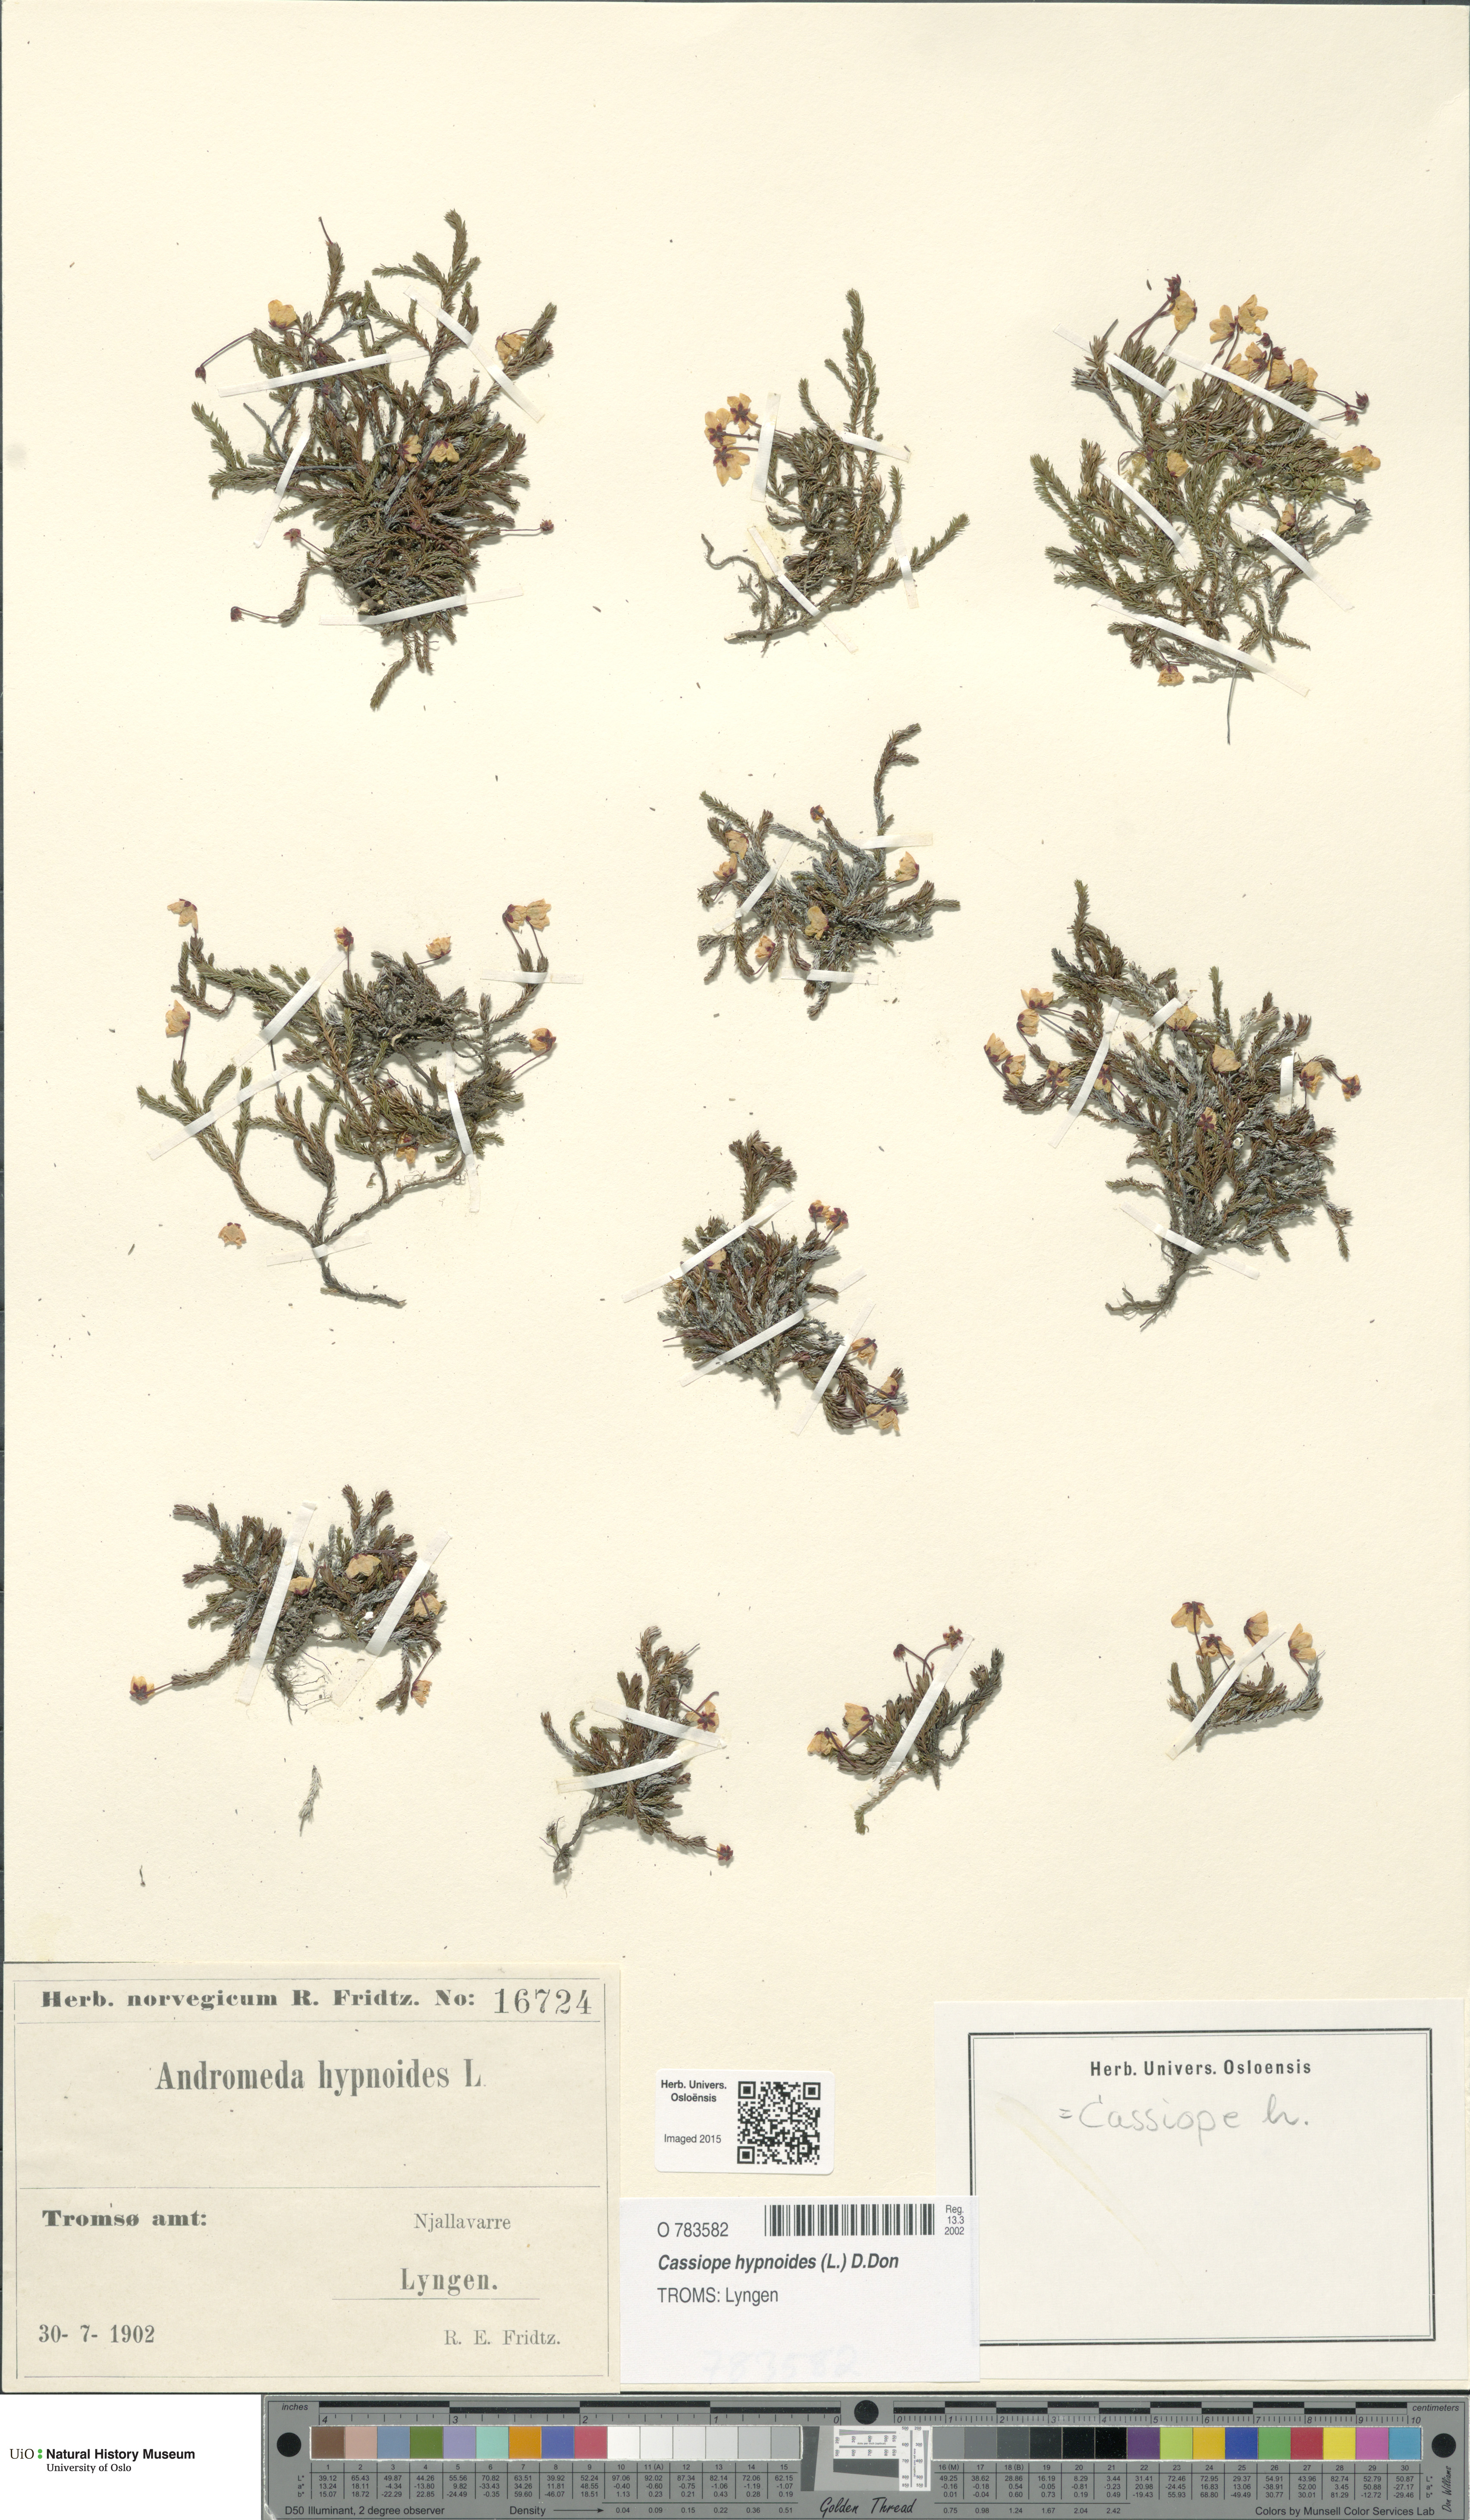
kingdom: Plantae
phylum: Tracheophyta
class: Magnoliopsida
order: Ericales
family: Ericaceae
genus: Harrimanella
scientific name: Harrimanella hypnoides
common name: Moss bell heather
